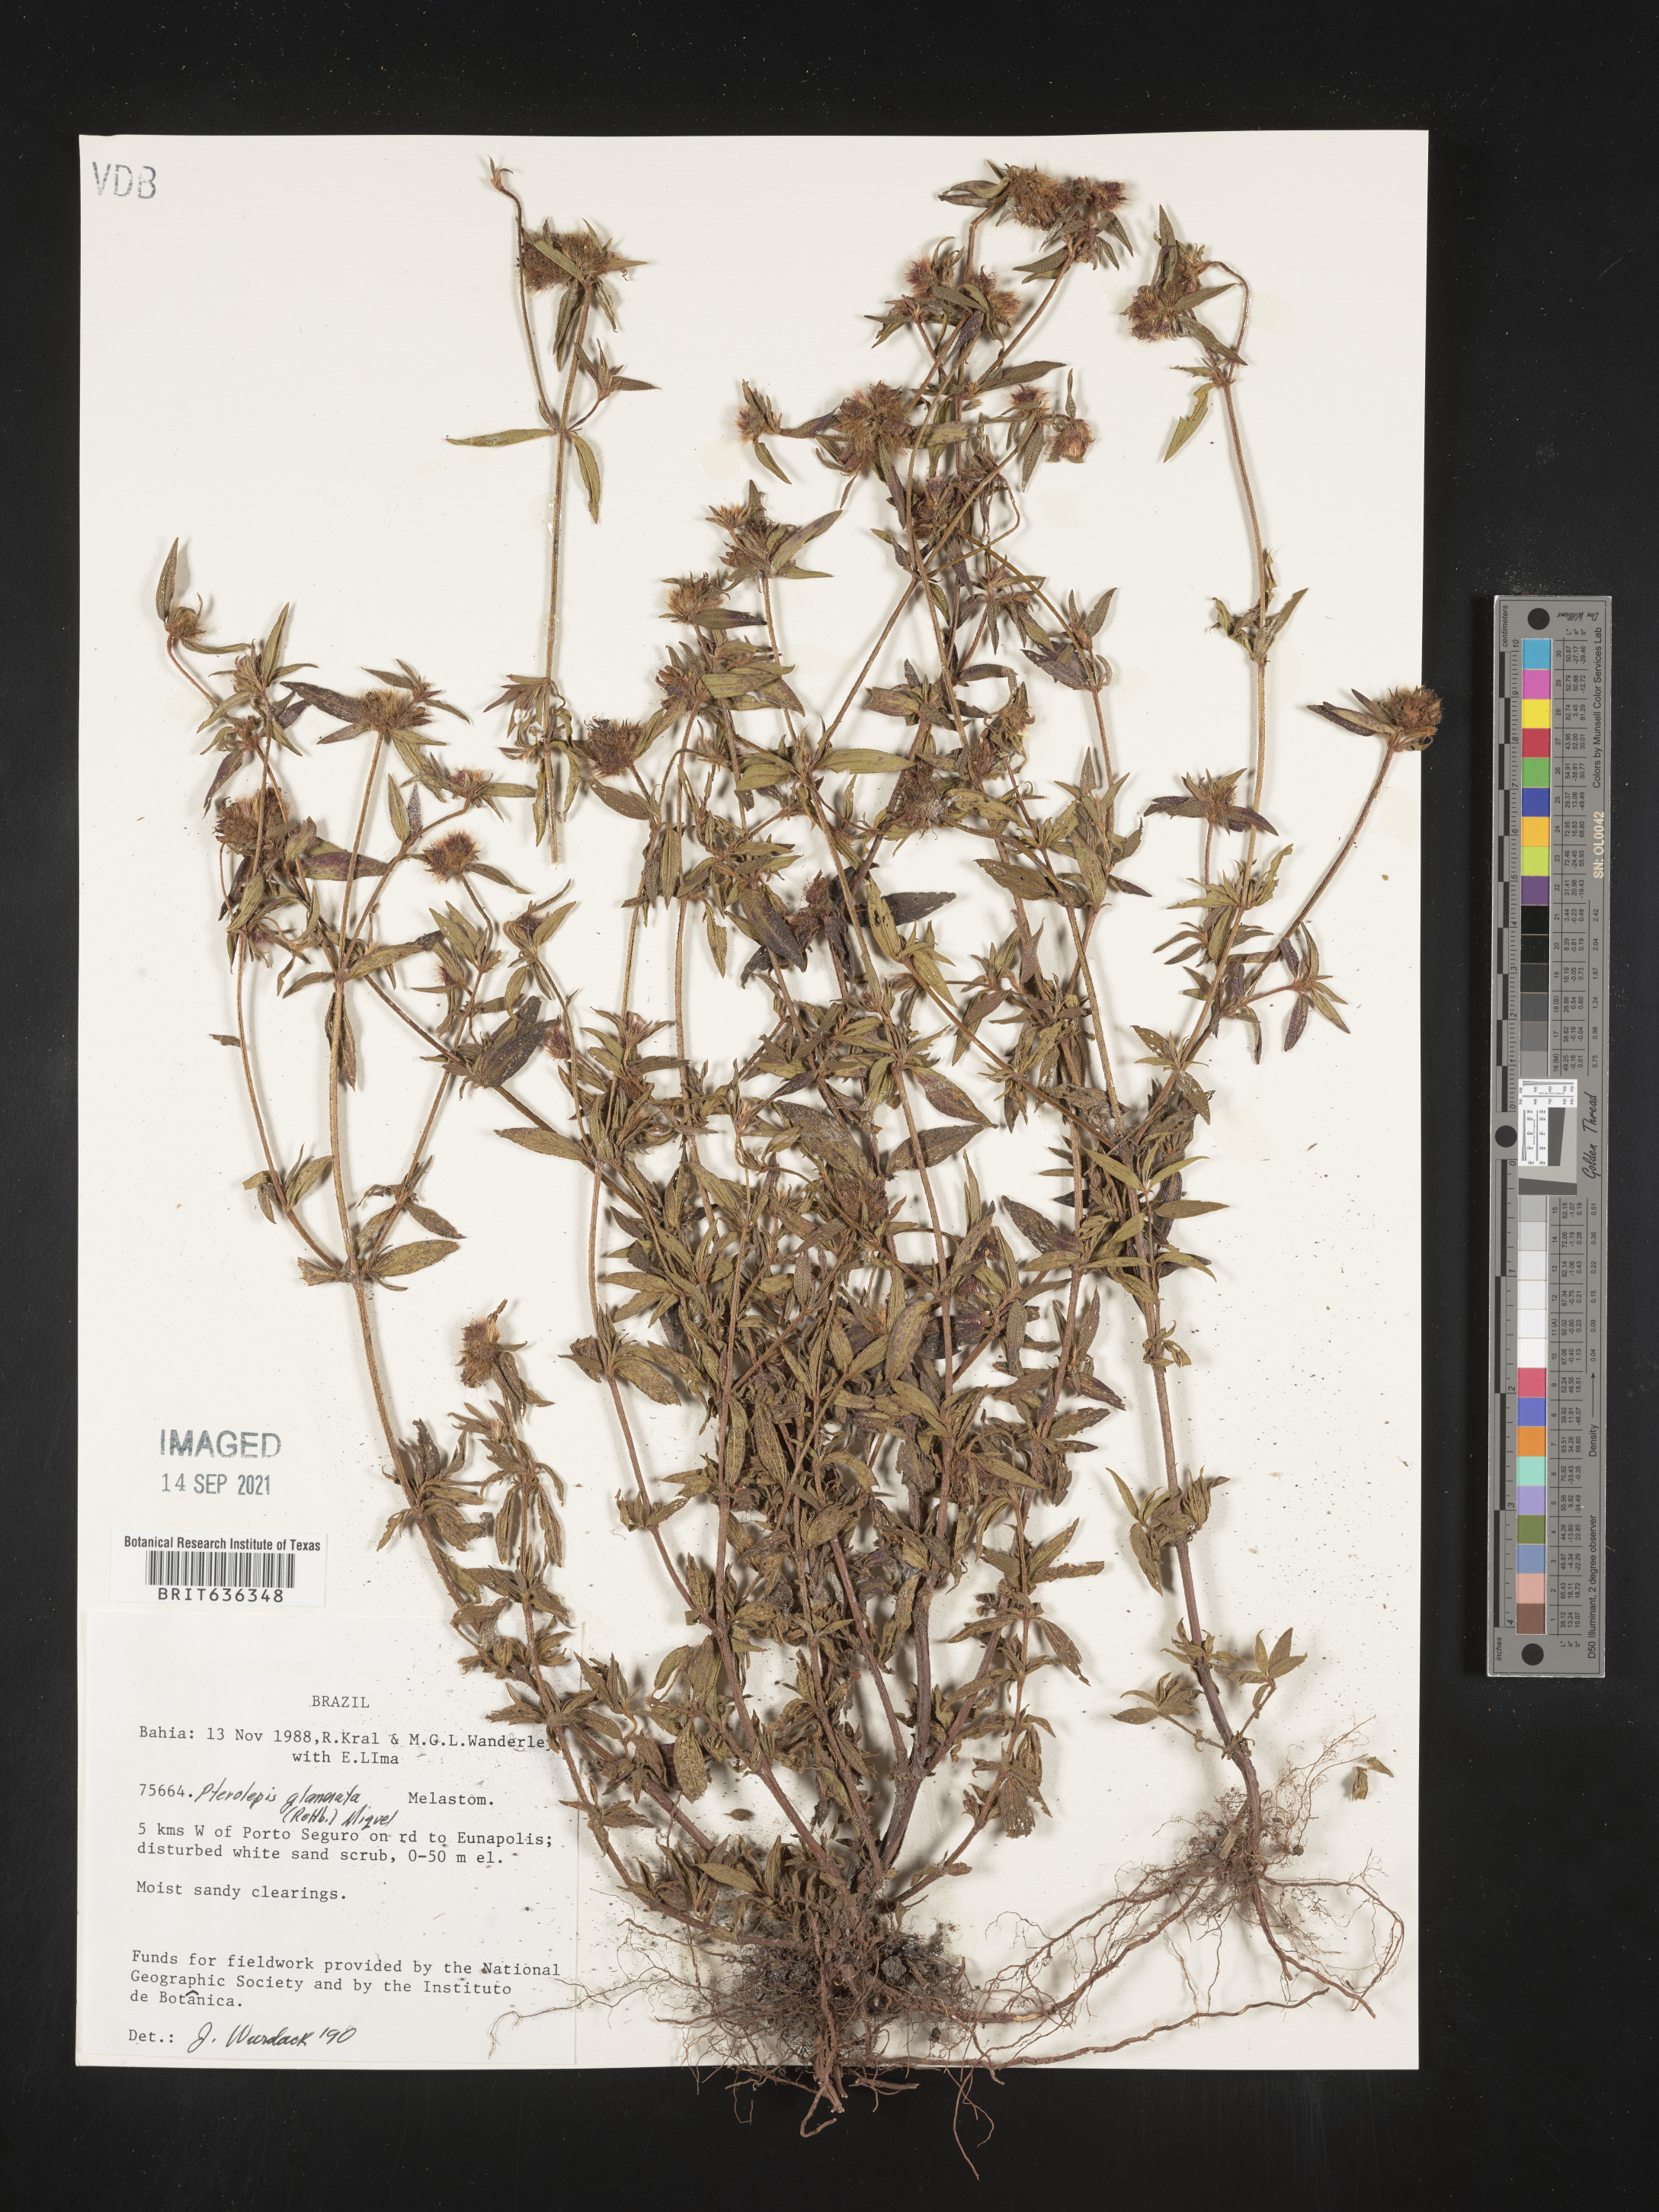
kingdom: Plantae
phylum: Tracheophyta
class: Magnoliopsida
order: Myrtales
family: Melastomataceae
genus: Pterolepis
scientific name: Pterolepis
